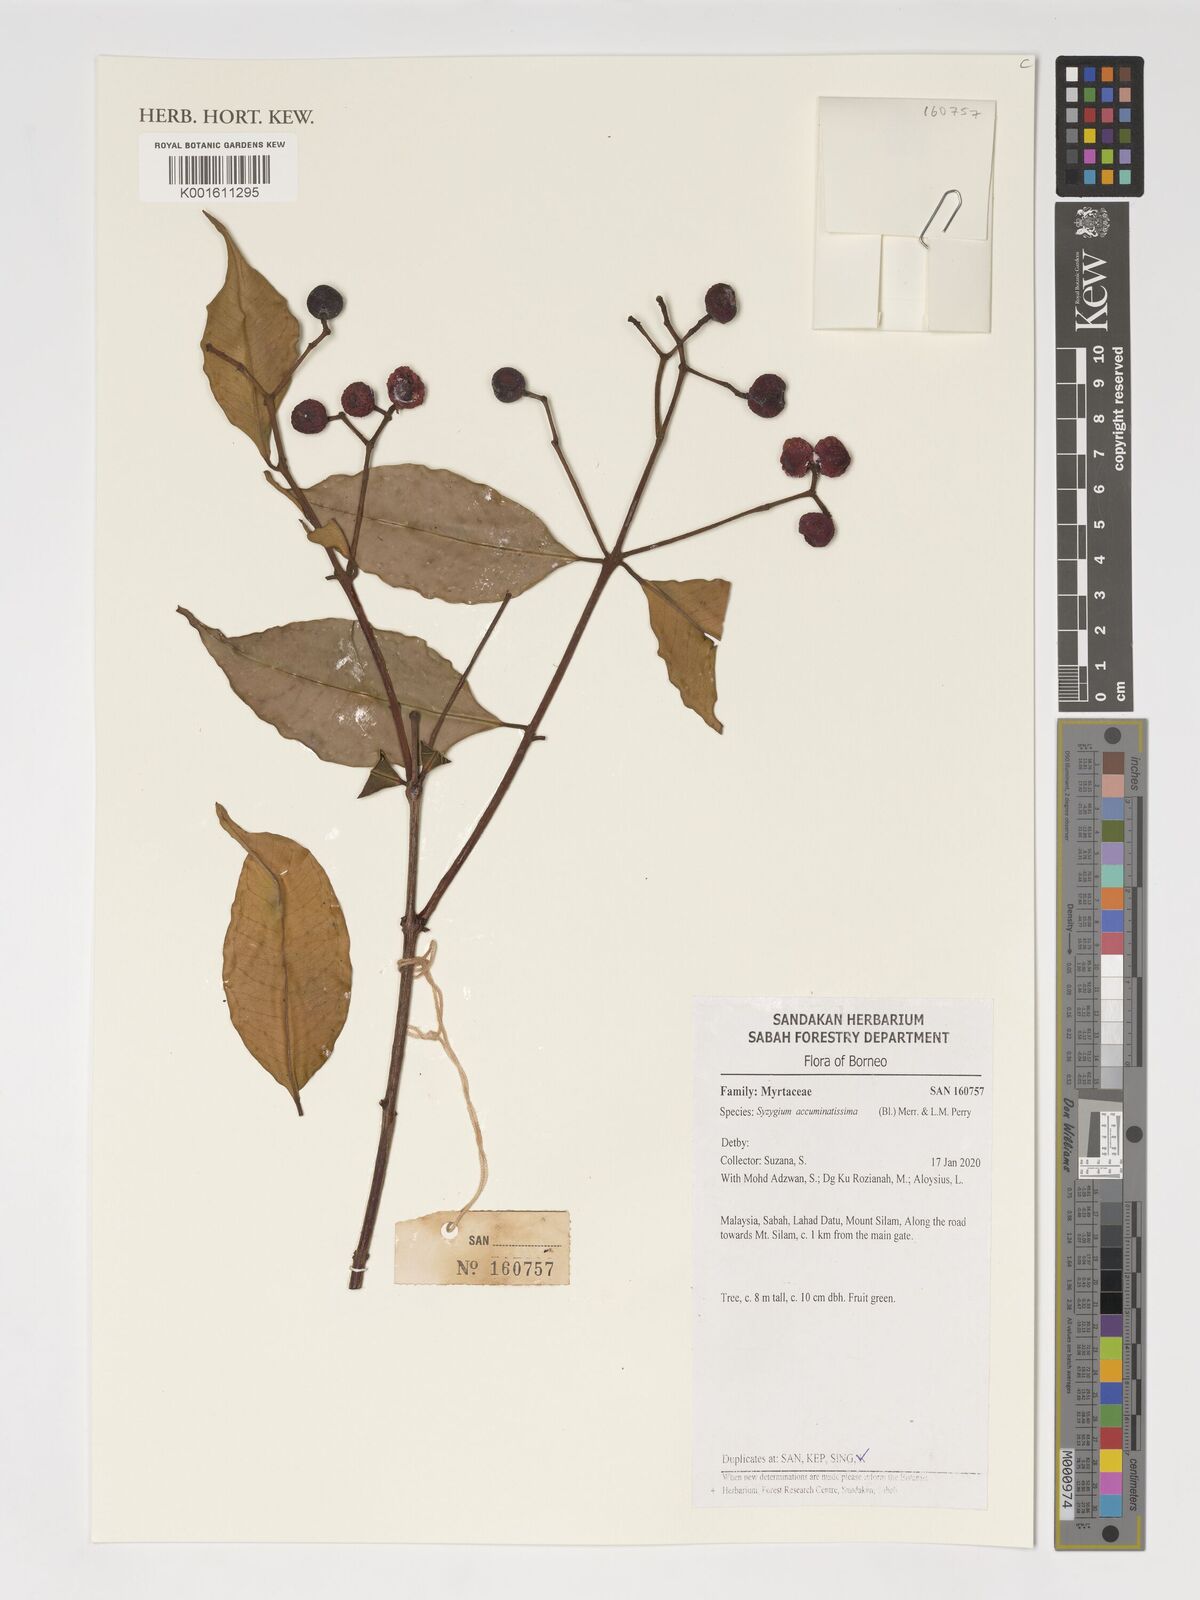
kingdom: Plantae
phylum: Tracheophyta
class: Magnoliopsida
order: Myrtales
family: Myrtaceae
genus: Syzygium
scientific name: Syzygium acuminatissimum
